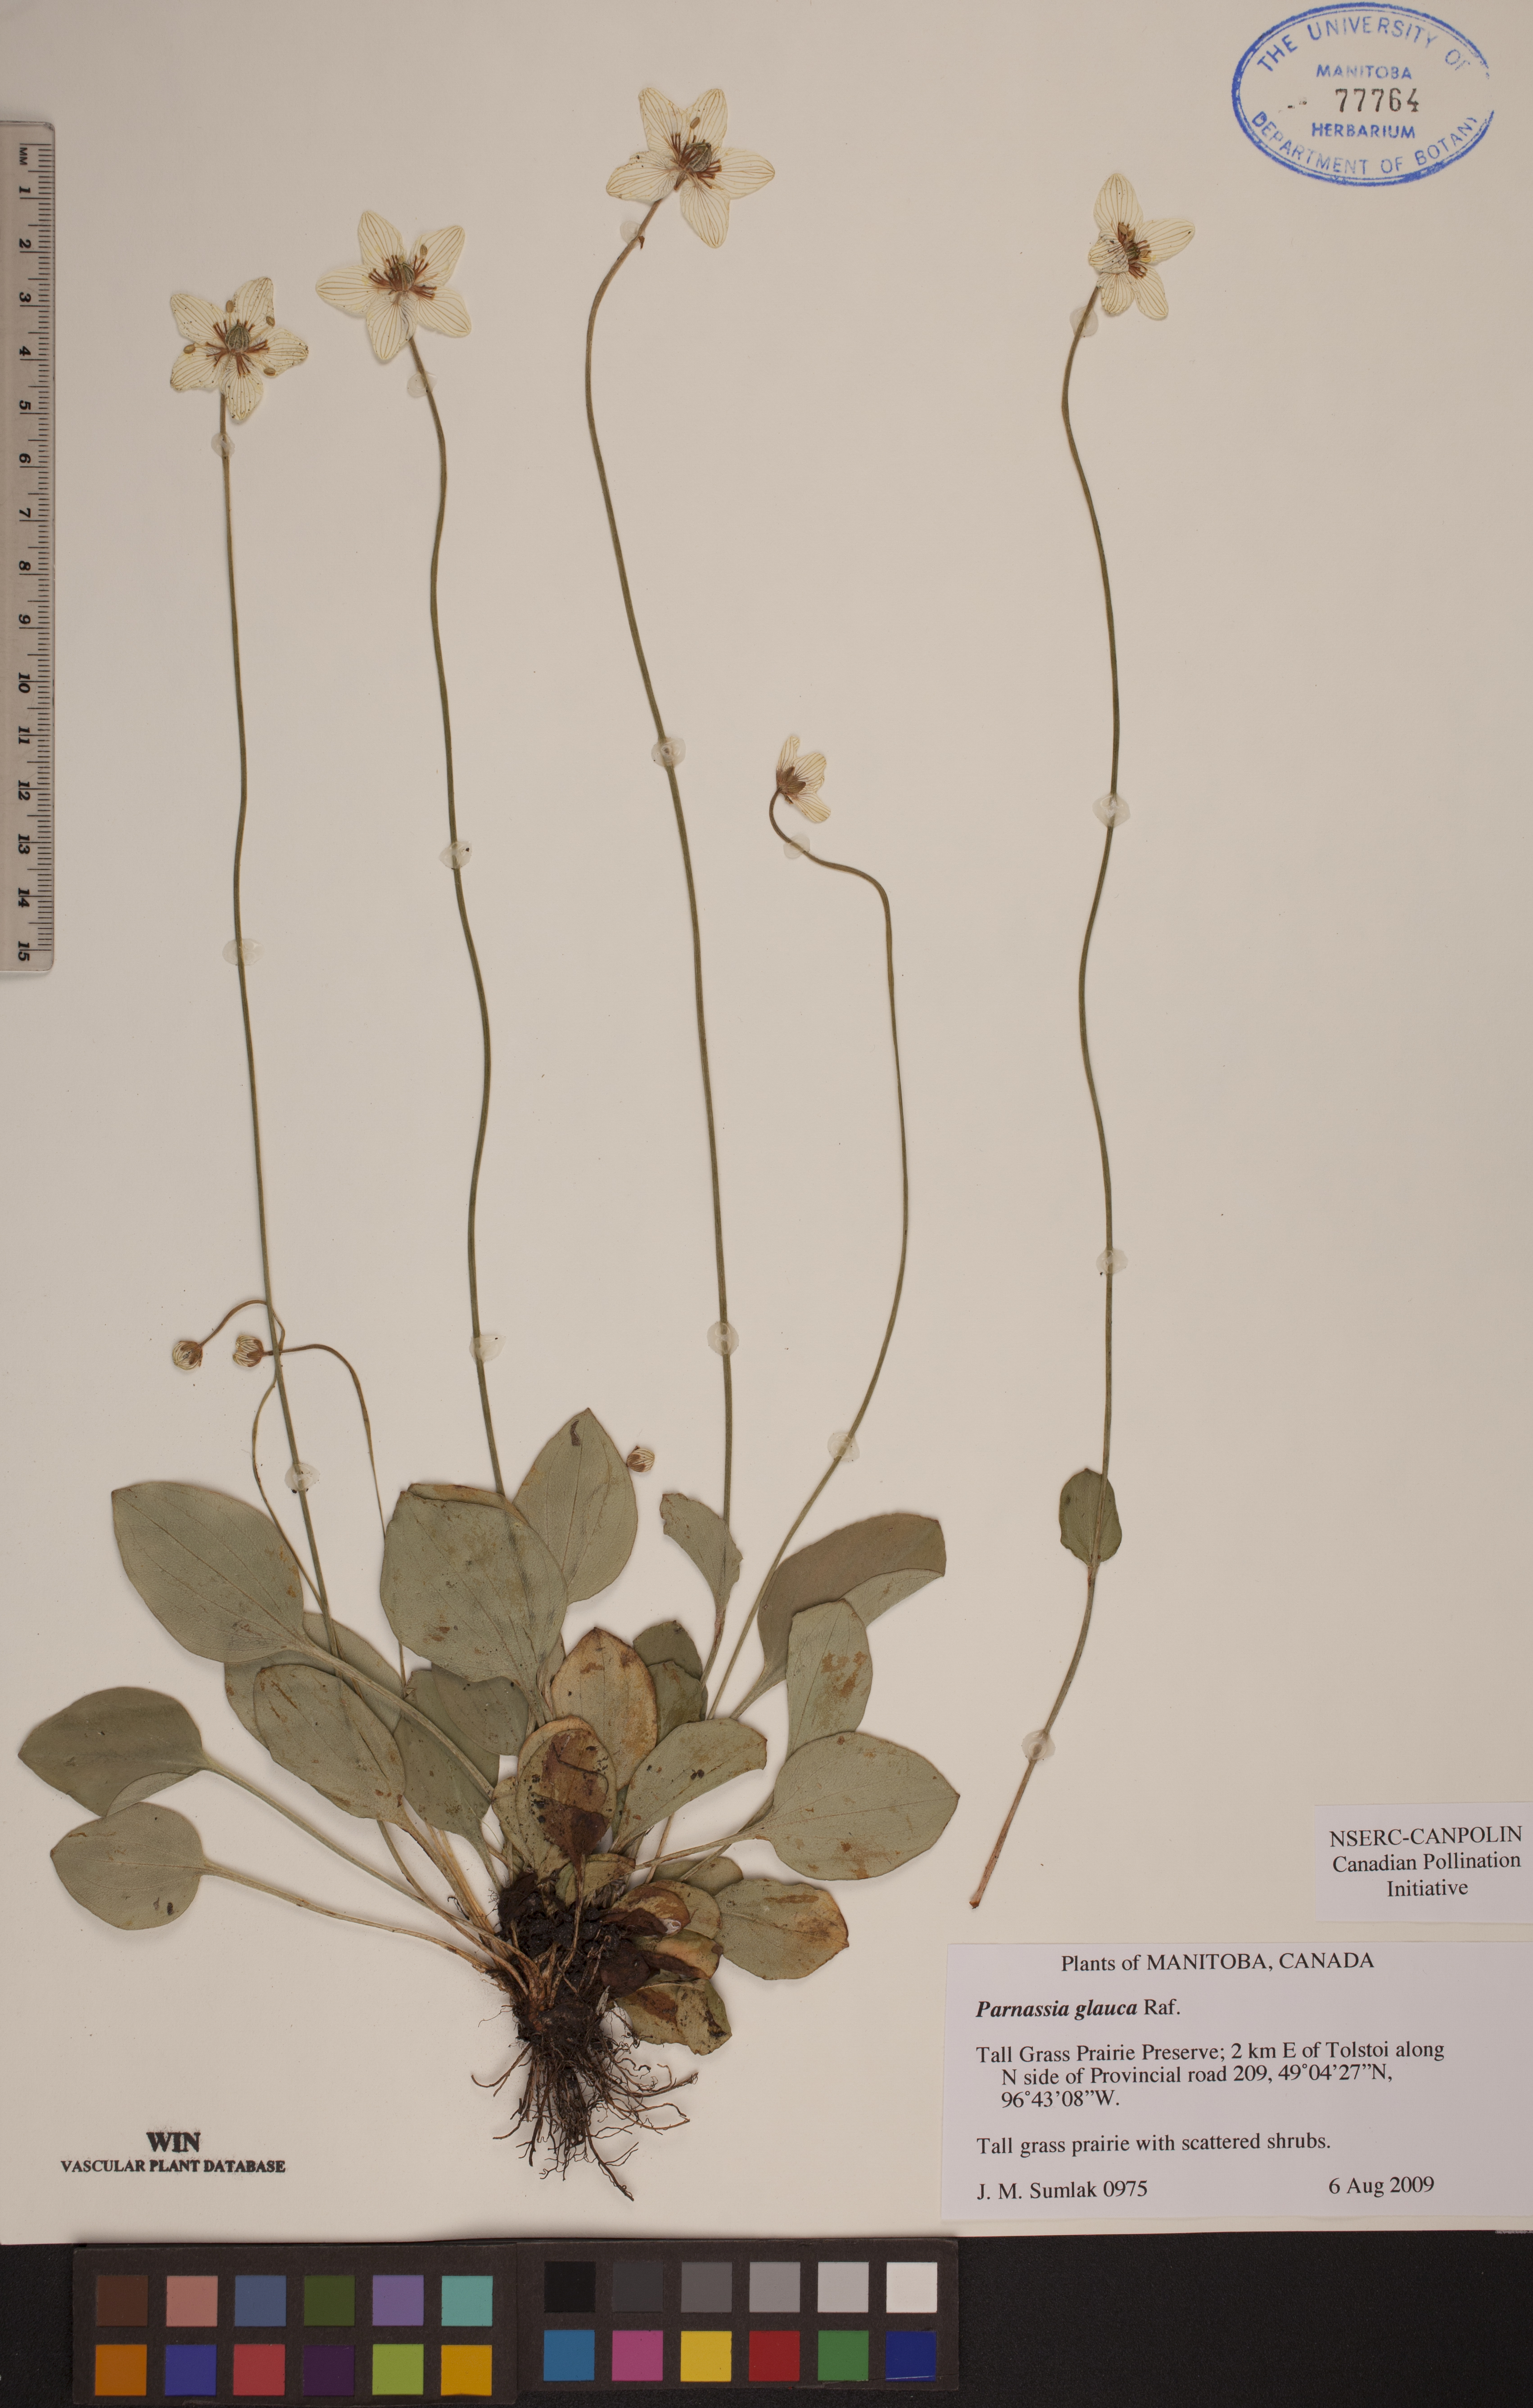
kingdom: Plantae
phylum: Tracheophyta
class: Magnoliopsida
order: Celastrales
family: Parnassiaceae
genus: Parnassia
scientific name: Parnassia glauca
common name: American grass-of-parnassus
